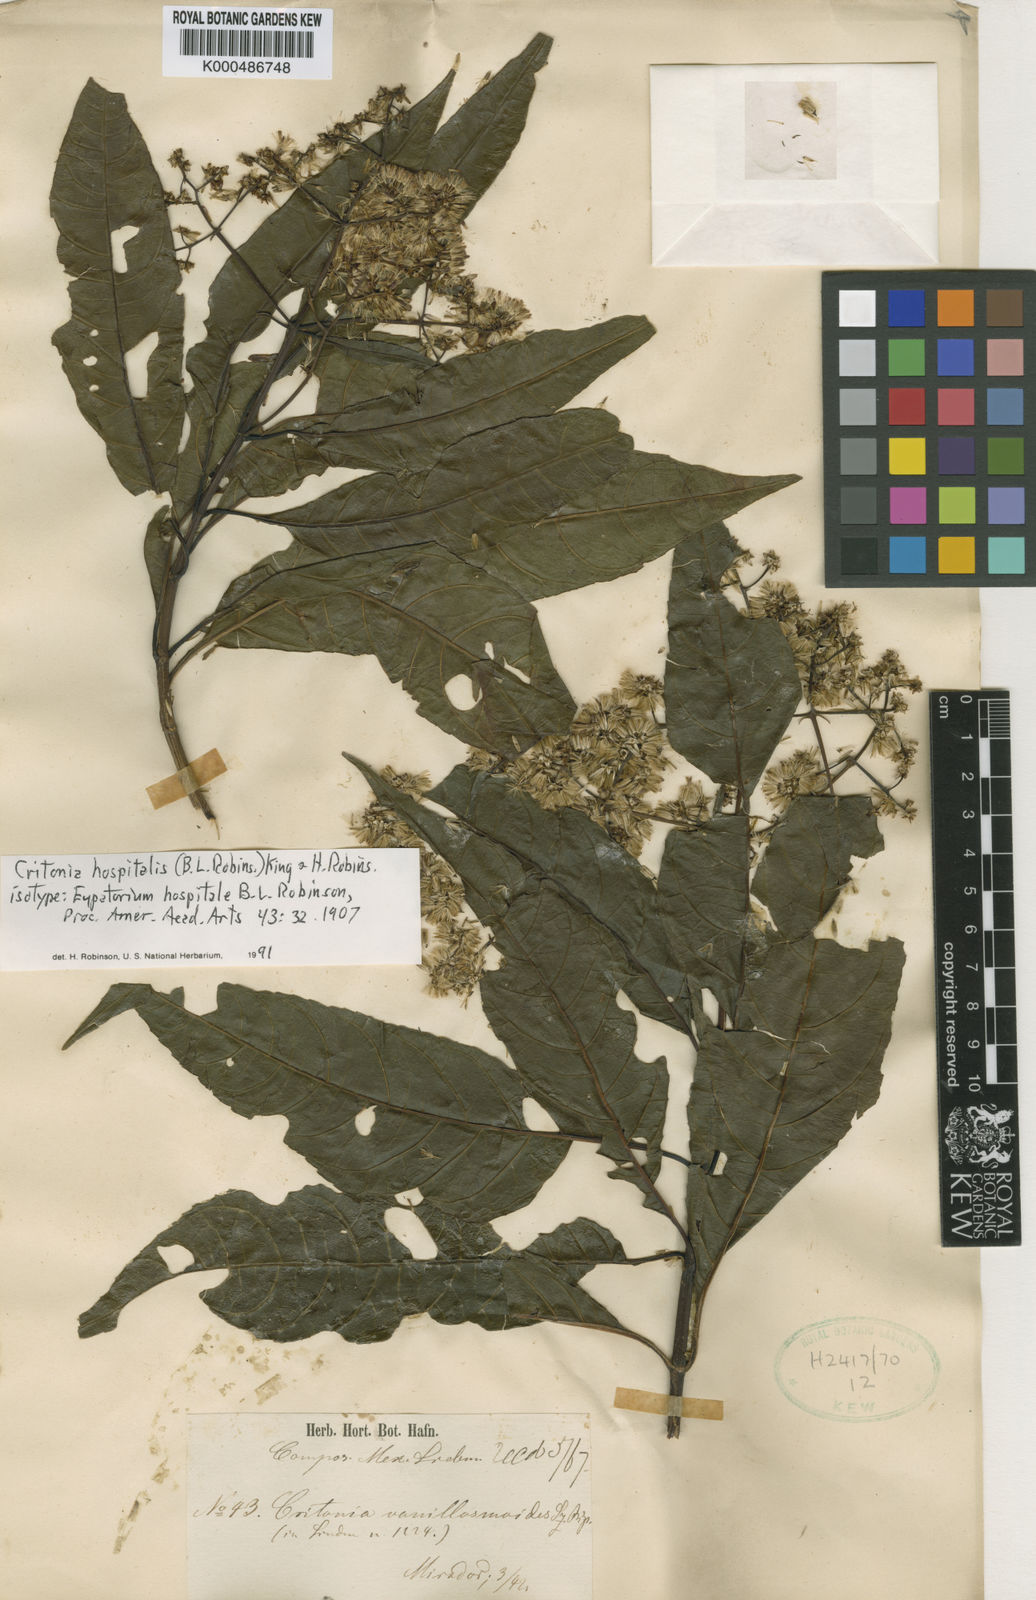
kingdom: Plantae
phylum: Tracheophyta
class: Magnoliopsida
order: Asterales
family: Asteraceae
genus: Critonia
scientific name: Critonia hospitalis
